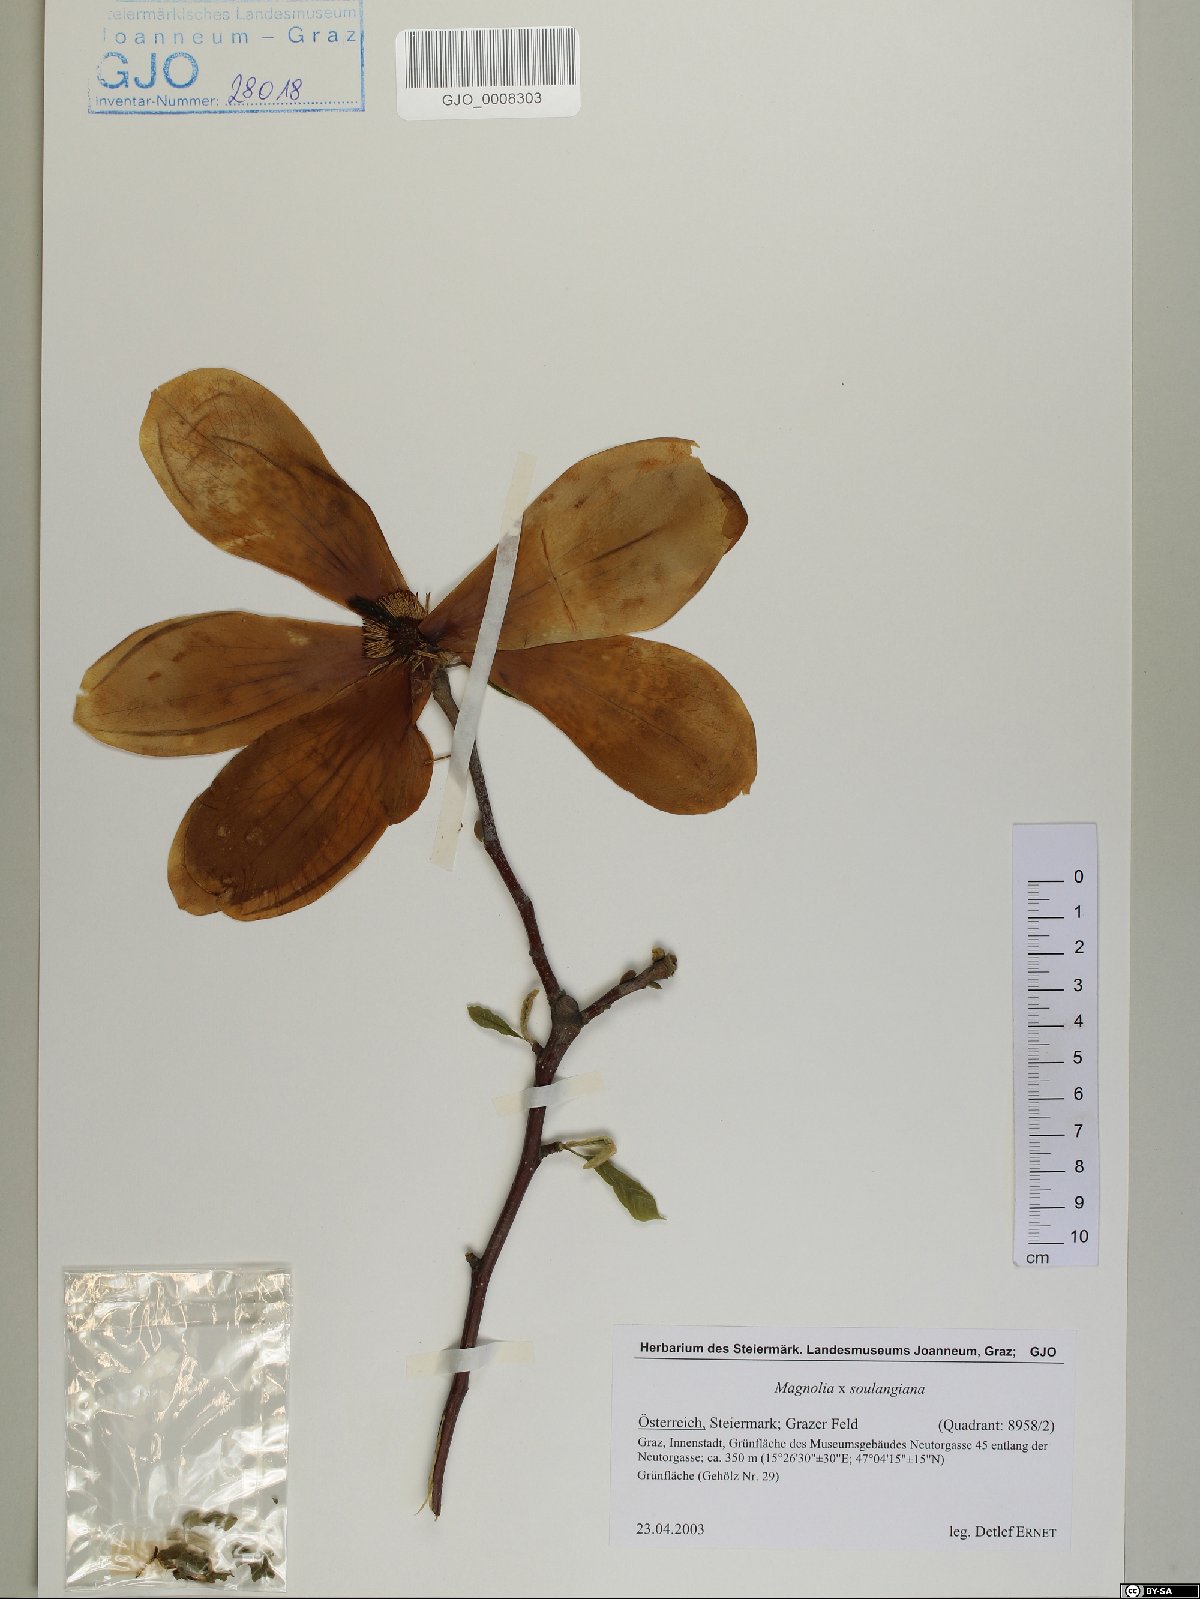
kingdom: Plantae
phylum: Tracheophyta
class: Magnoliopsida
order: Magnoliales
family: Magnoliaceae
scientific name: Magnoliaceae
